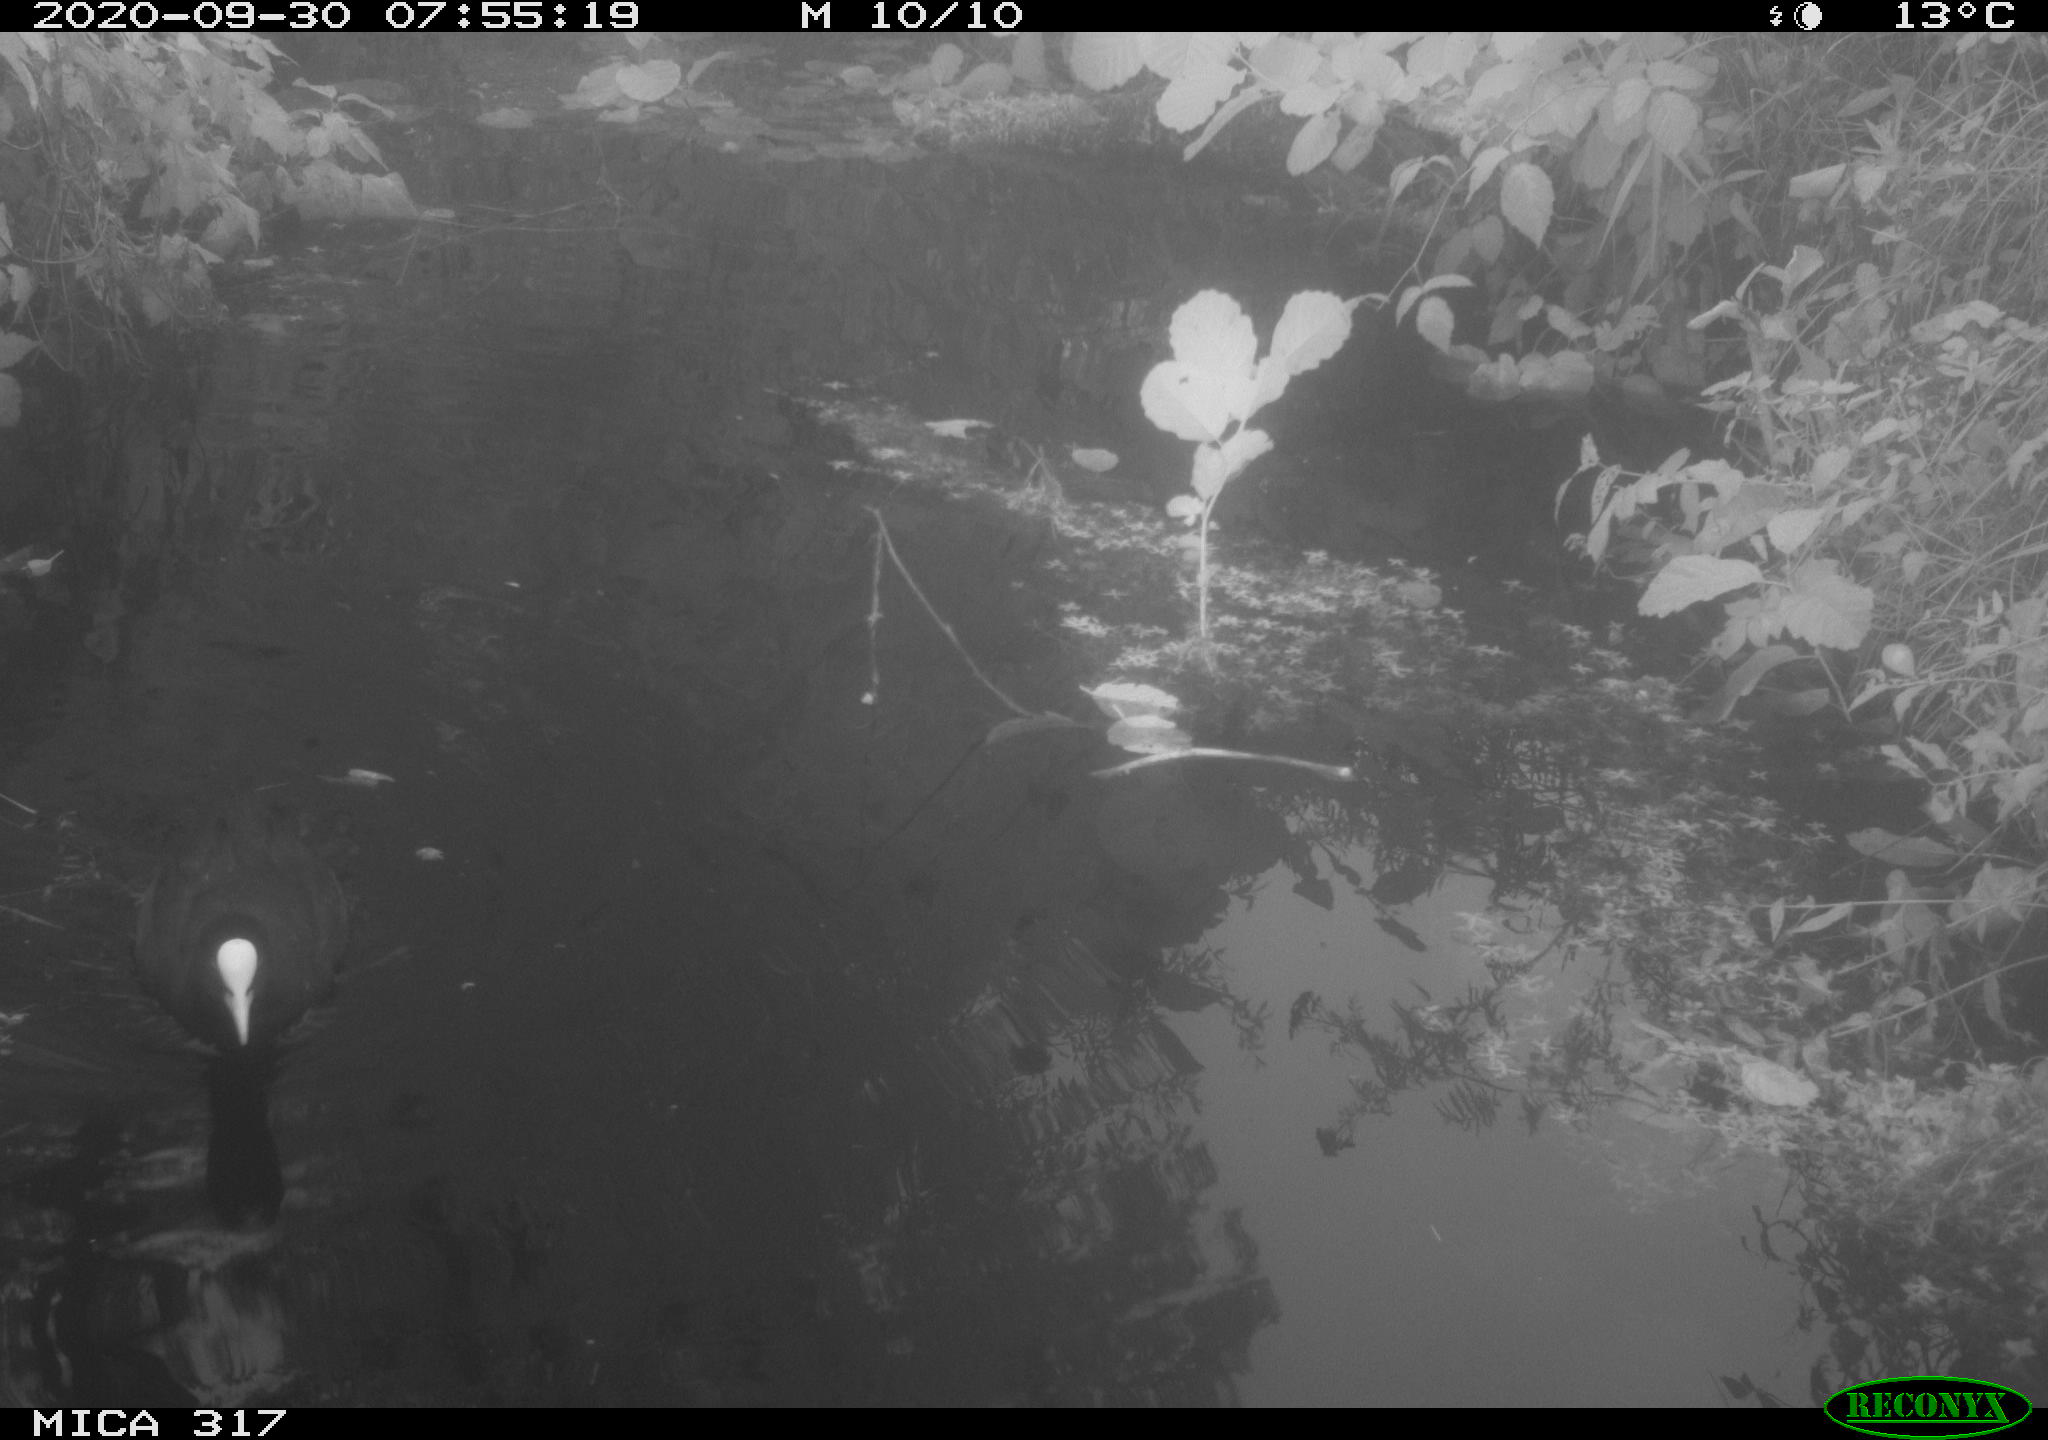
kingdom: Animalia
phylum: Chordata
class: Aves
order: Gruiformes
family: Rallidae
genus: Fulica
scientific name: Fulica atra
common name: Eurasian coot
